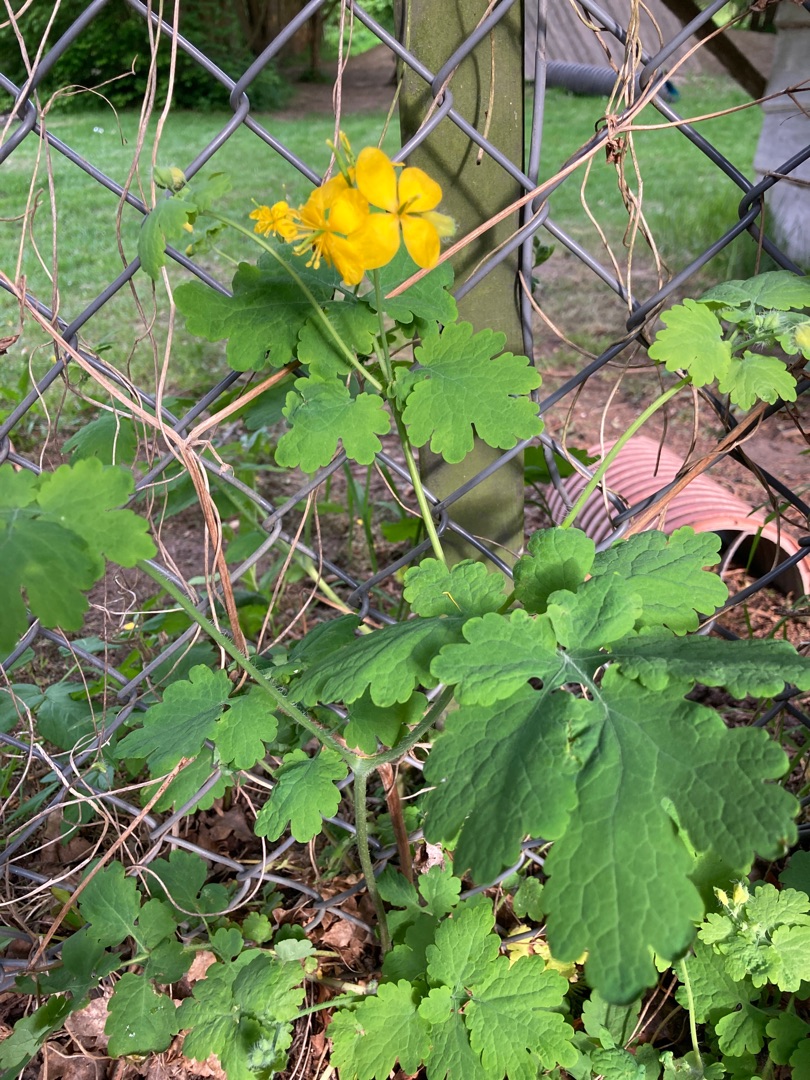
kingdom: Plantae
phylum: Tracheophyta
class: Magnoliopsida
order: Ranunculales
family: Papaveraceae
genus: Chelidonium
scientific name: Chelidonium majus
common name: Svaleurt
